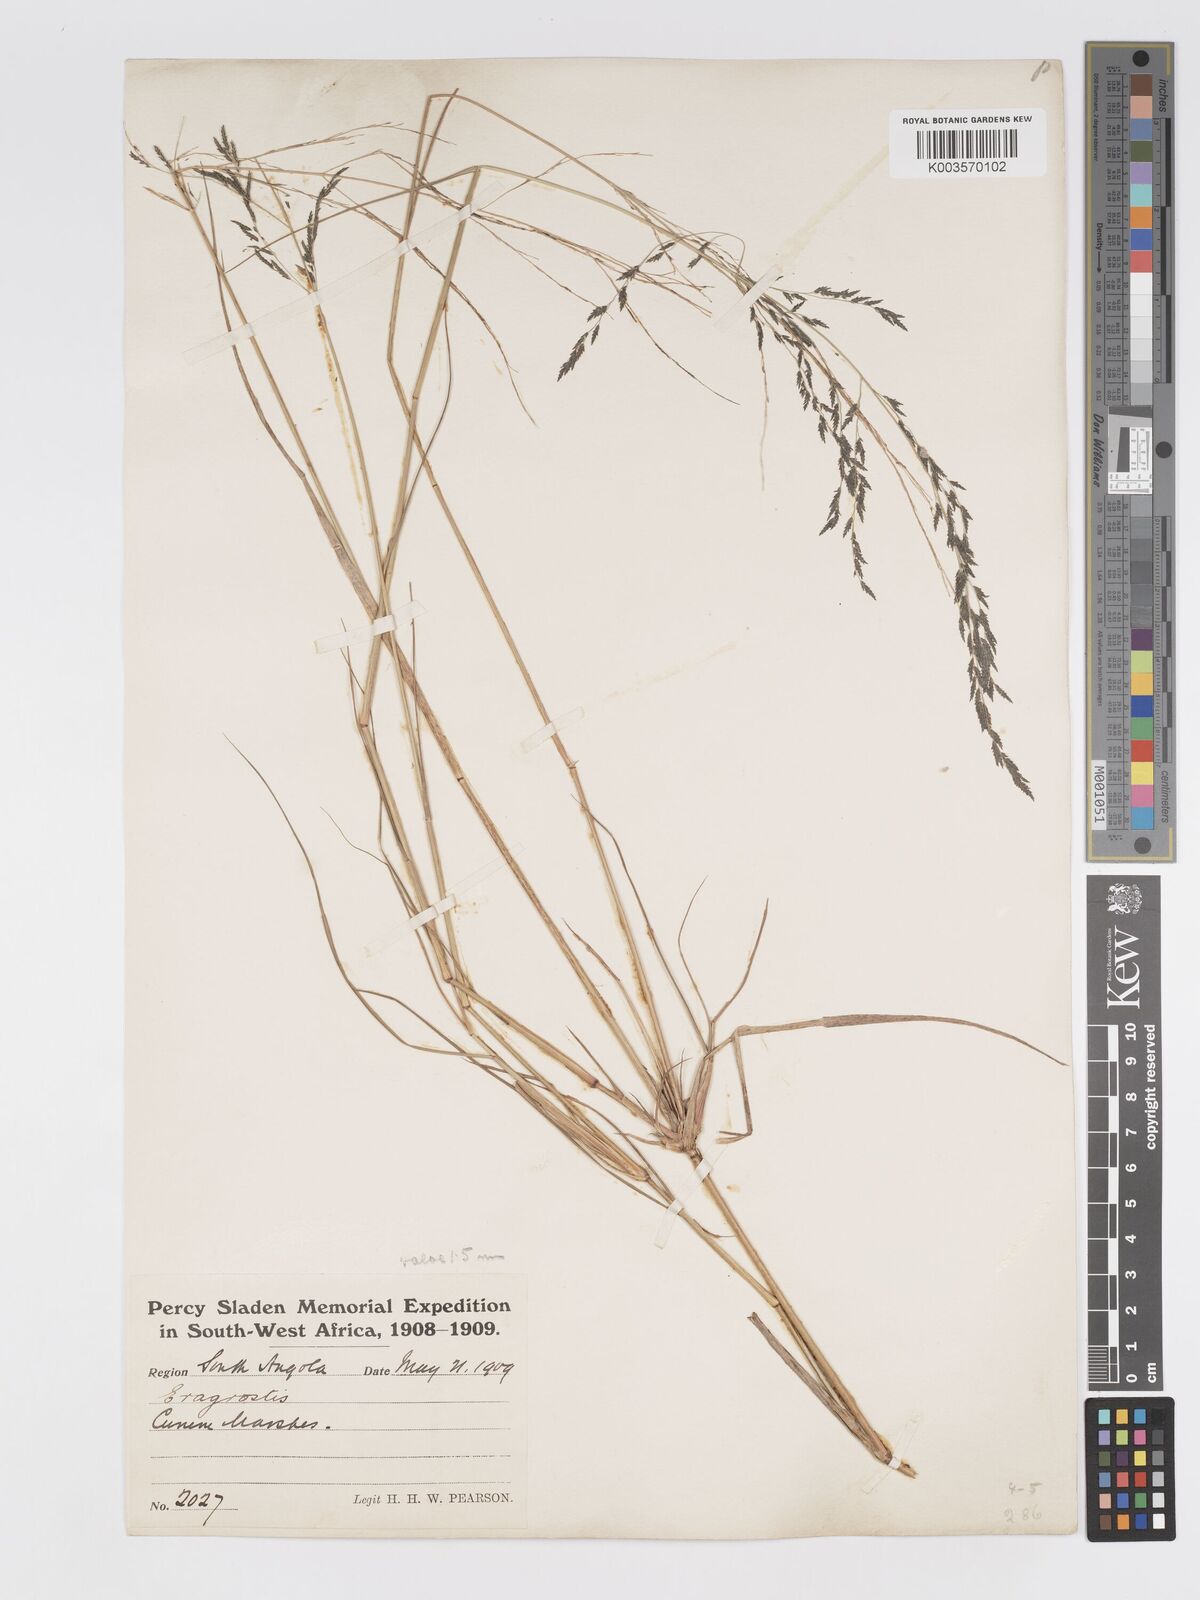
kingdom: Plantae
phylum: Tracheophyta
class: Liliopsida
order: Poales
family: Poaceae
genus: Eragrostis
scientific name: Eragrostis rotifer
